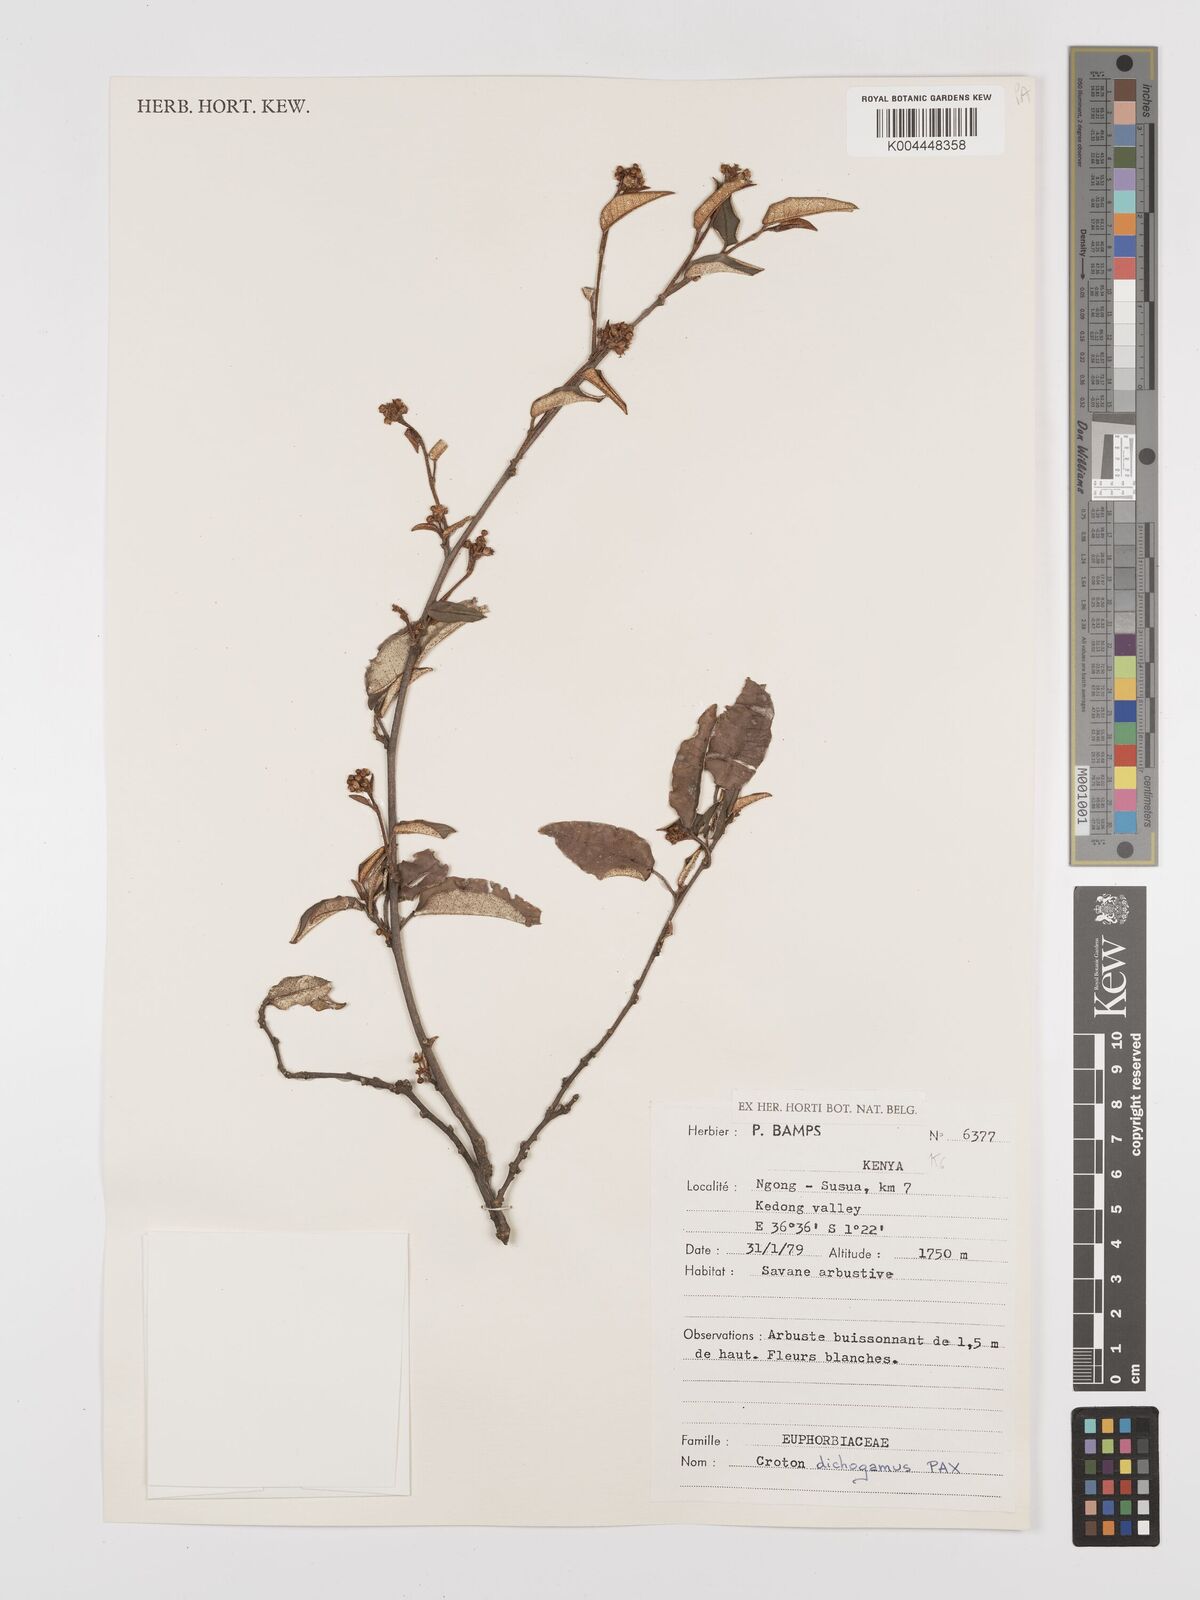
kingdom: Plantae
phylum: Tracheophyta
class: Magnoliopsida
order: Malpighiales
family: Euphorbiaceae
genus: Croton
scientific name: Croton dichogamus
